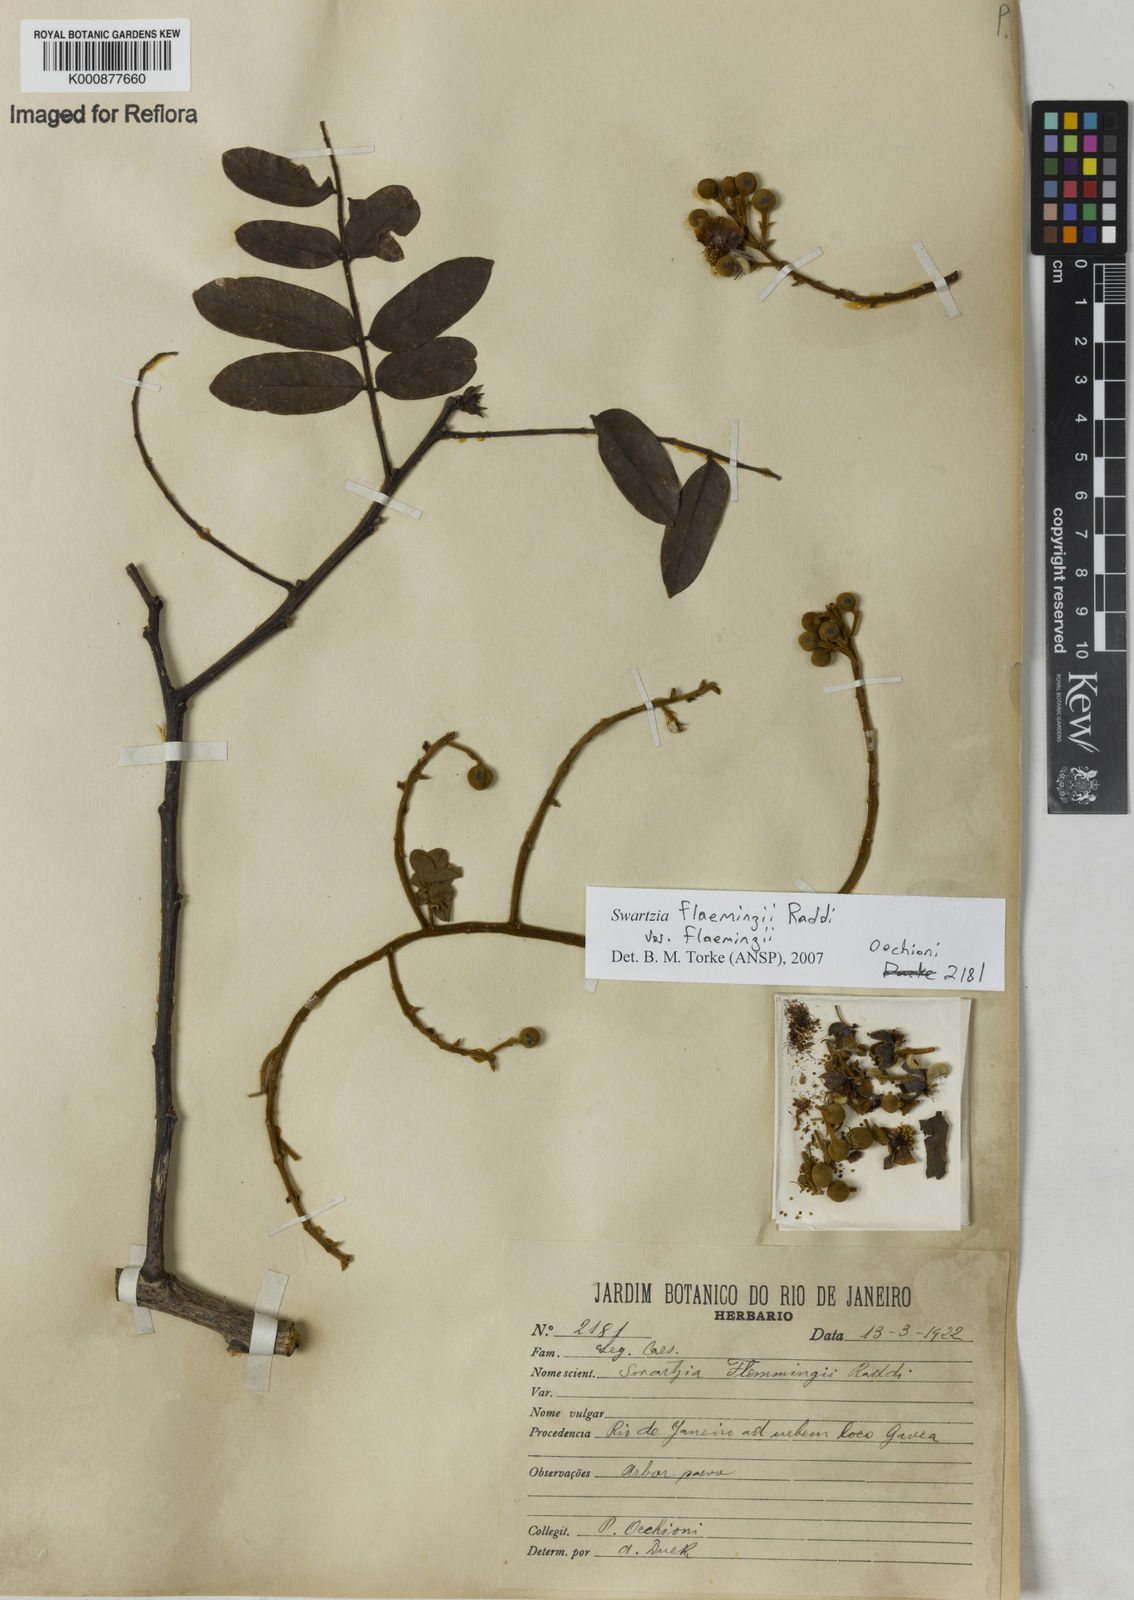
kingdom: Plantae
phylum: Tracheophyta
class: Magnoliopsida
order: Fabales
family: Fabaceae
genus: Swartzia
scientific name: Swartzia flaemingii
